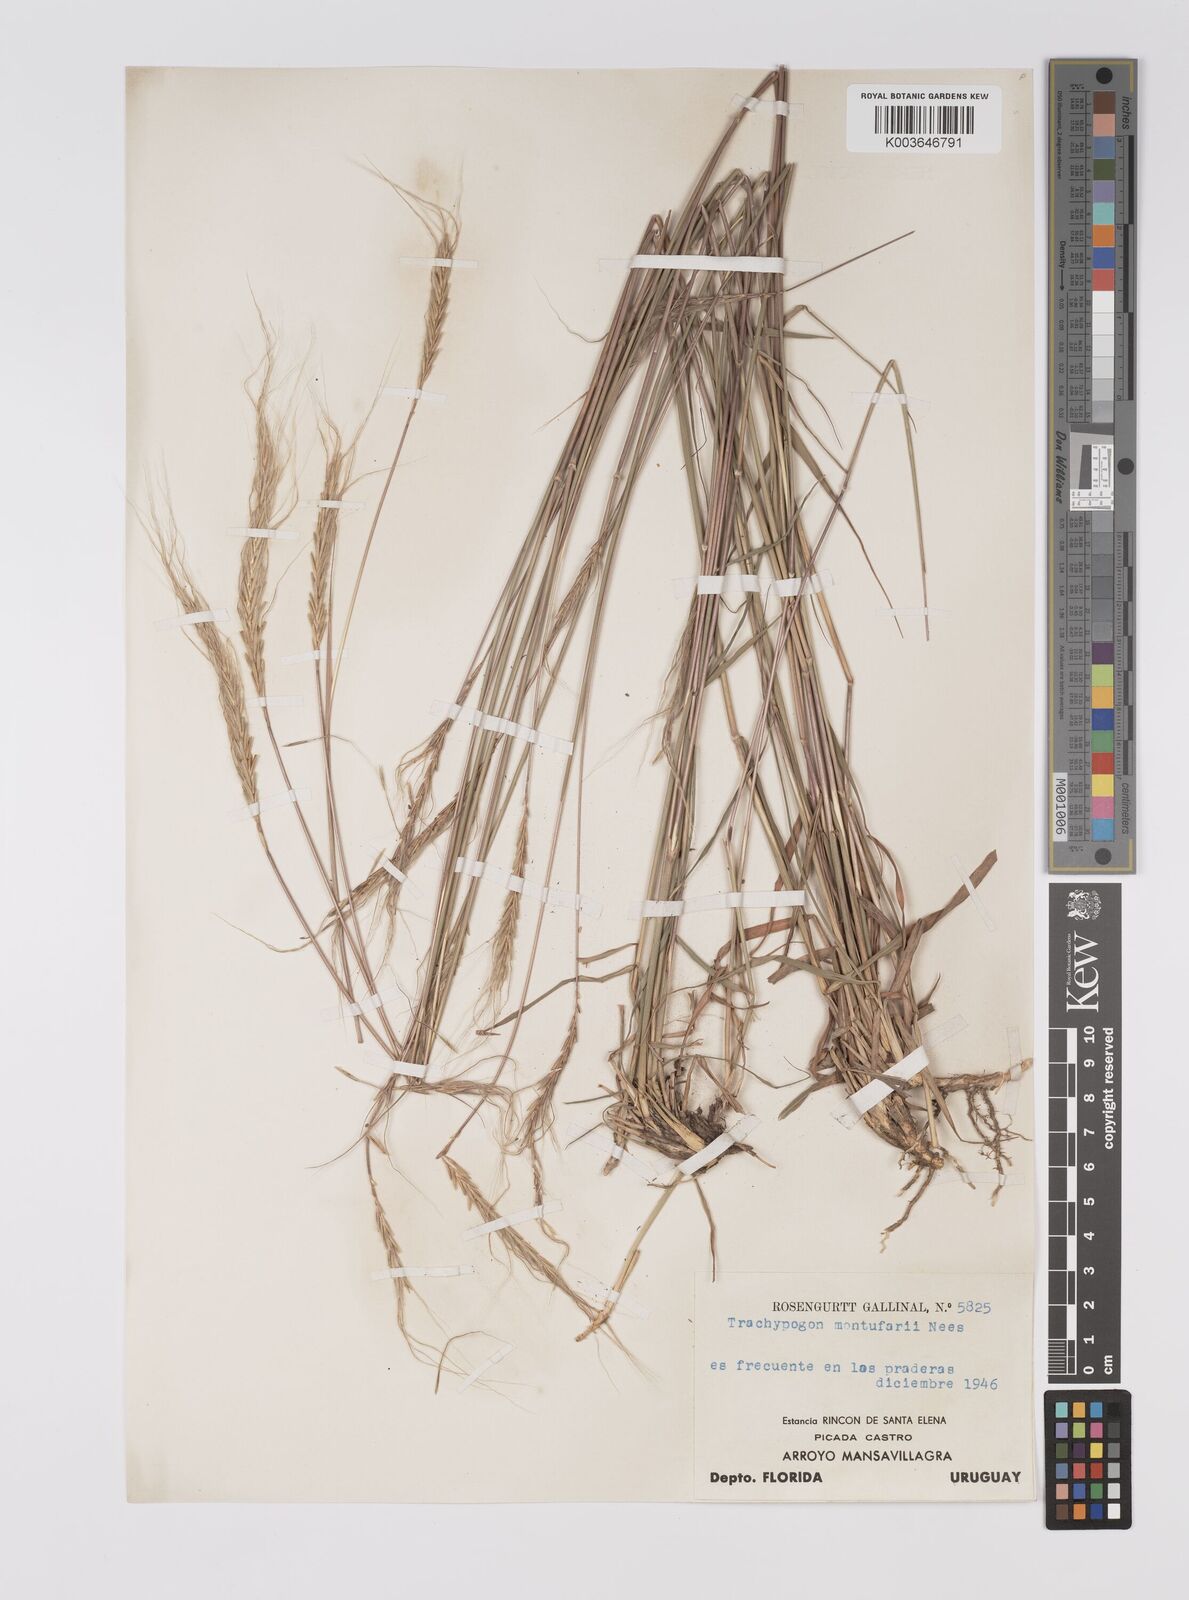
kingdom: Plantae
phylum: Tracheophyta
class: Liliopsida
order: Poales
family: Poaceae
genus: Trachypogon
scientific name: Trachypogon spicatus
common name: Crinkle-awn
